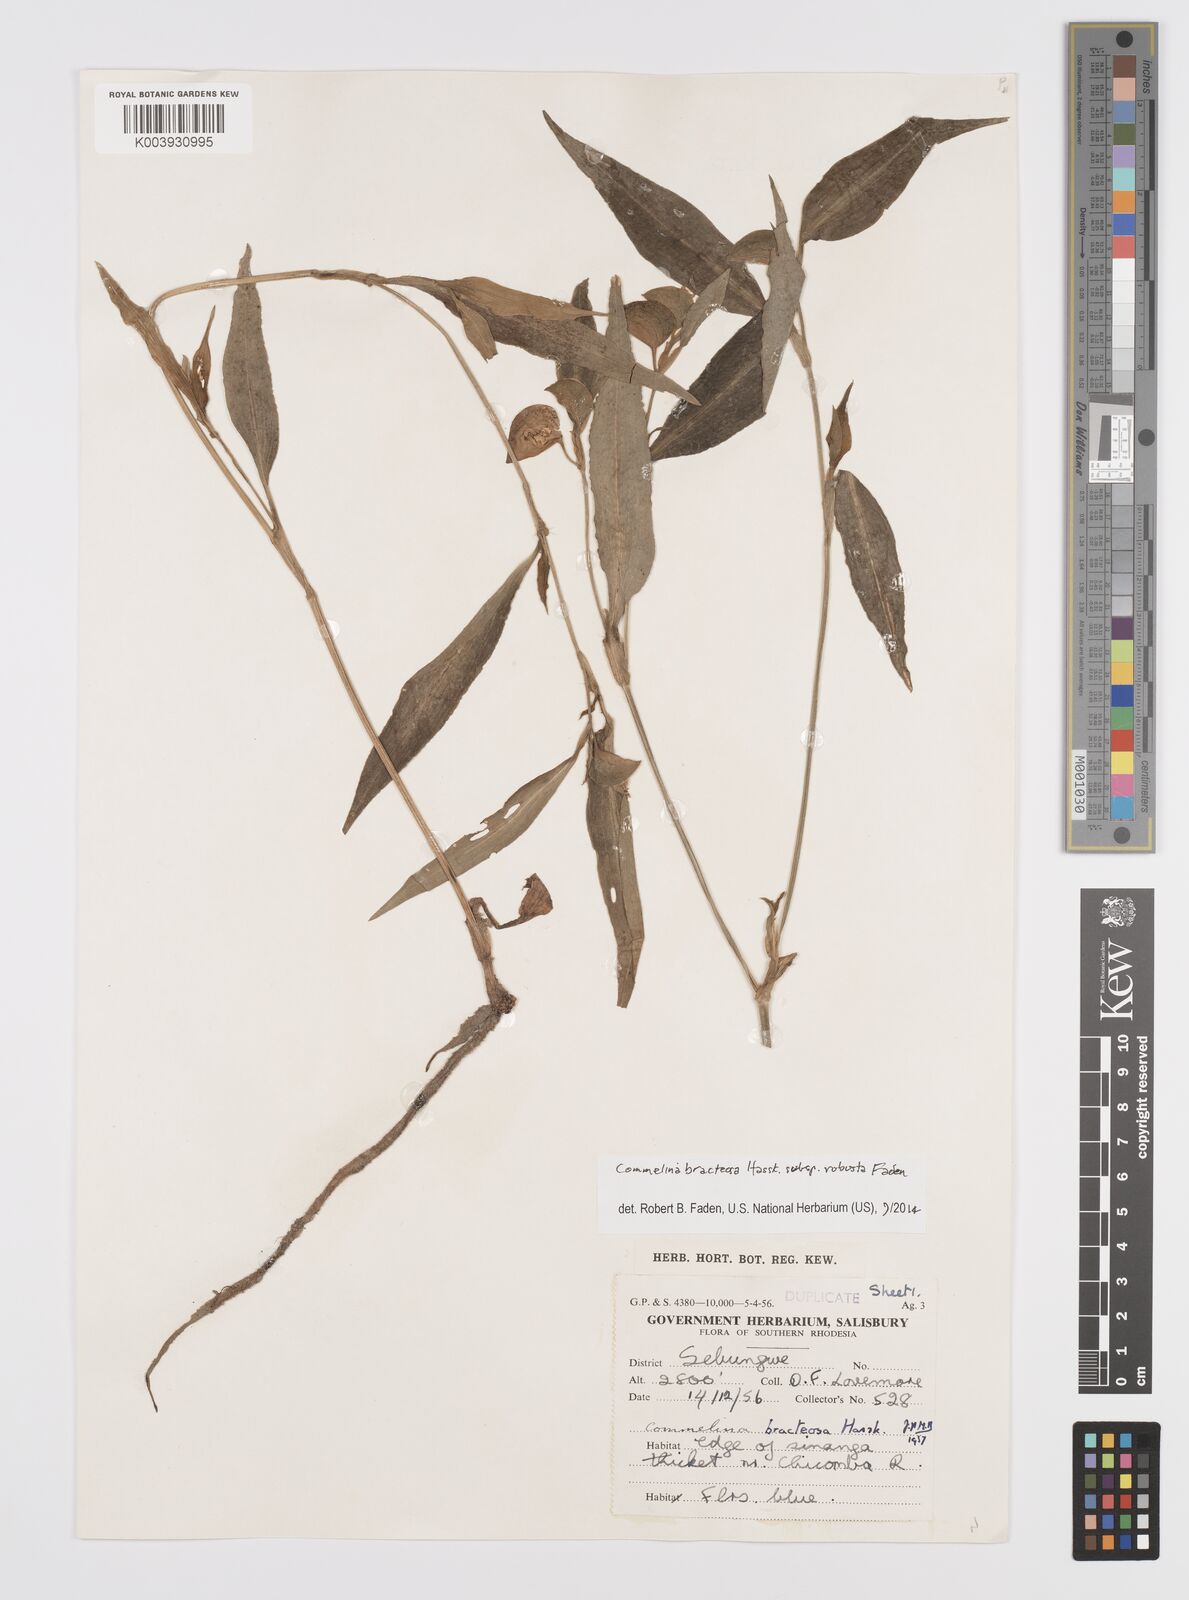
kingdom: Plantae
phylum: Tracheophyta
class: Liliopsida
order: Commelinales
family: Commelinaceae
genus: Commelina
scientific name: Commelina bracteosa
